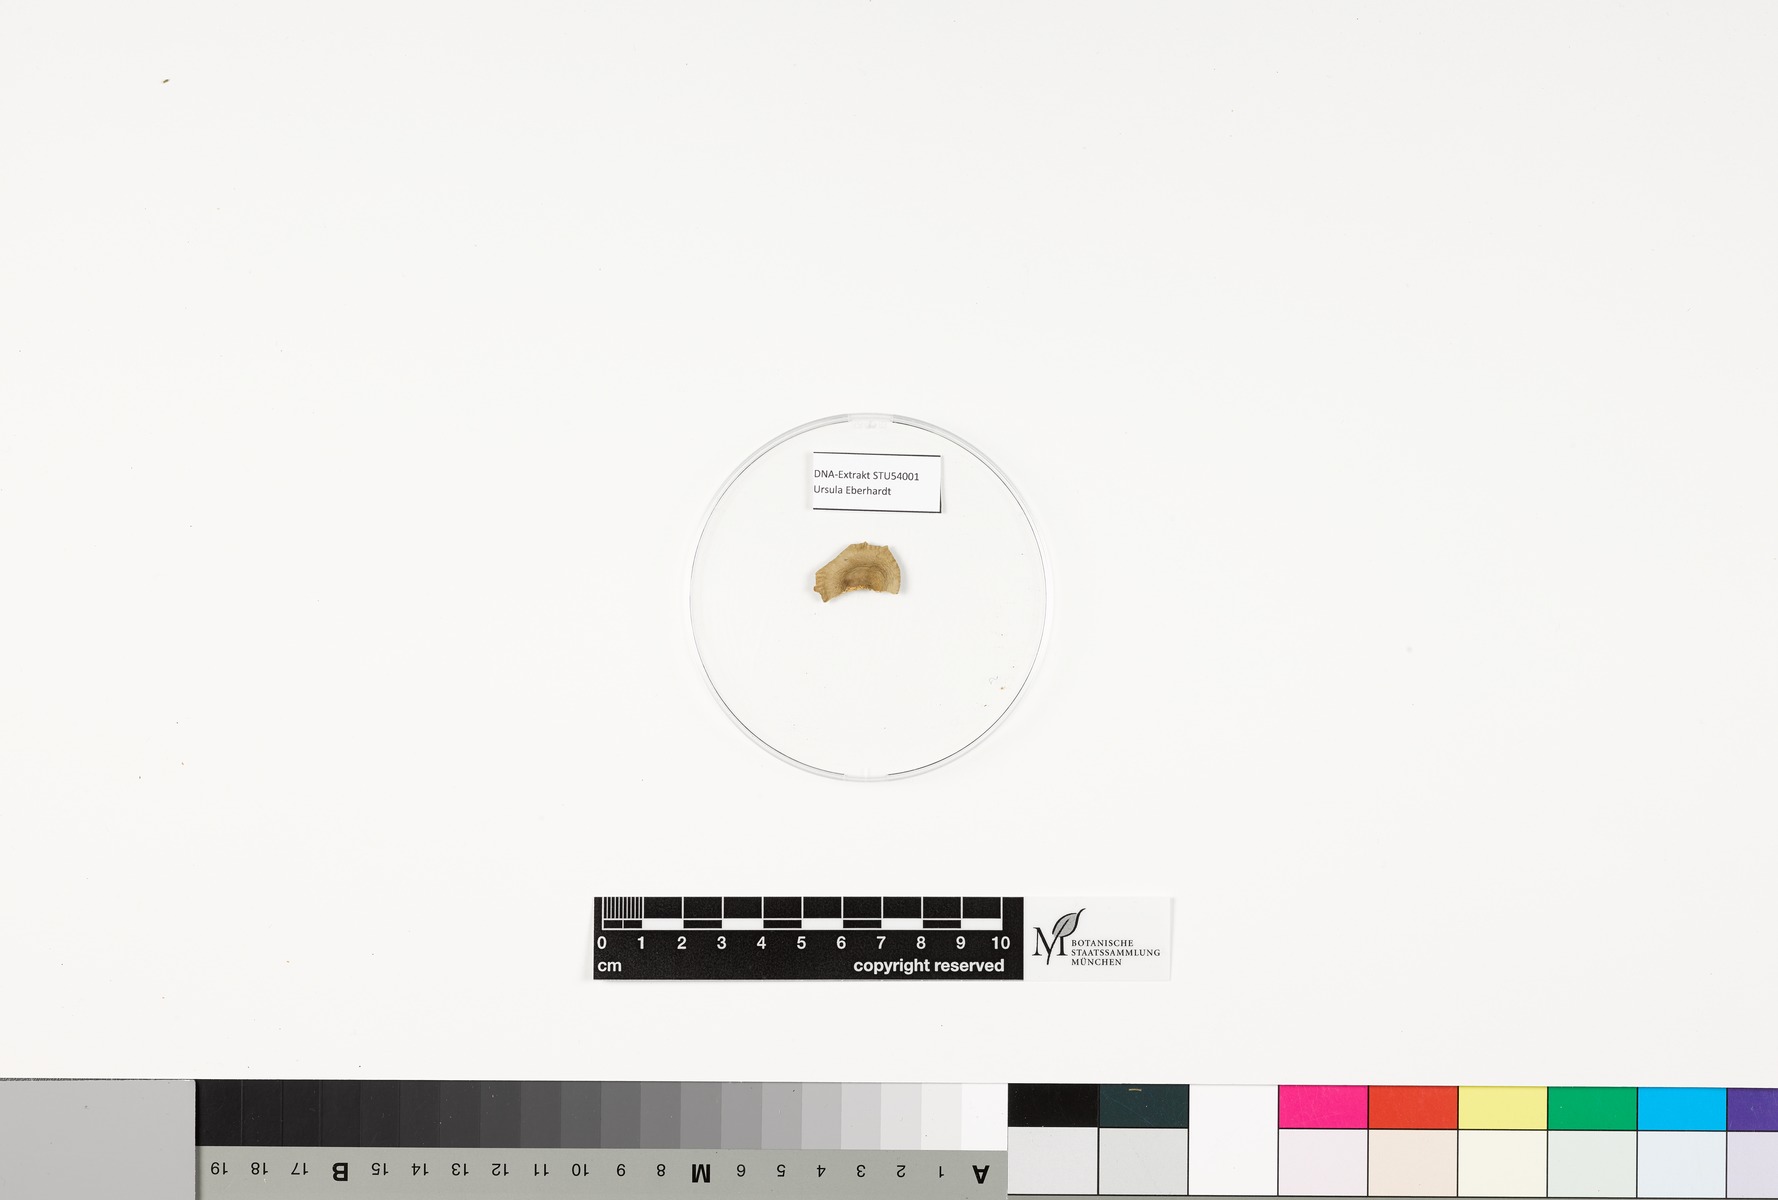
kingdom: Fungi
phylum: Basidiomycota
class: Agaricomycetes
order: Russulales
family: Russulaceae
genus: Lactarius
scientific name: Lactarius glyciosmus
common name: Coconut milkcap
